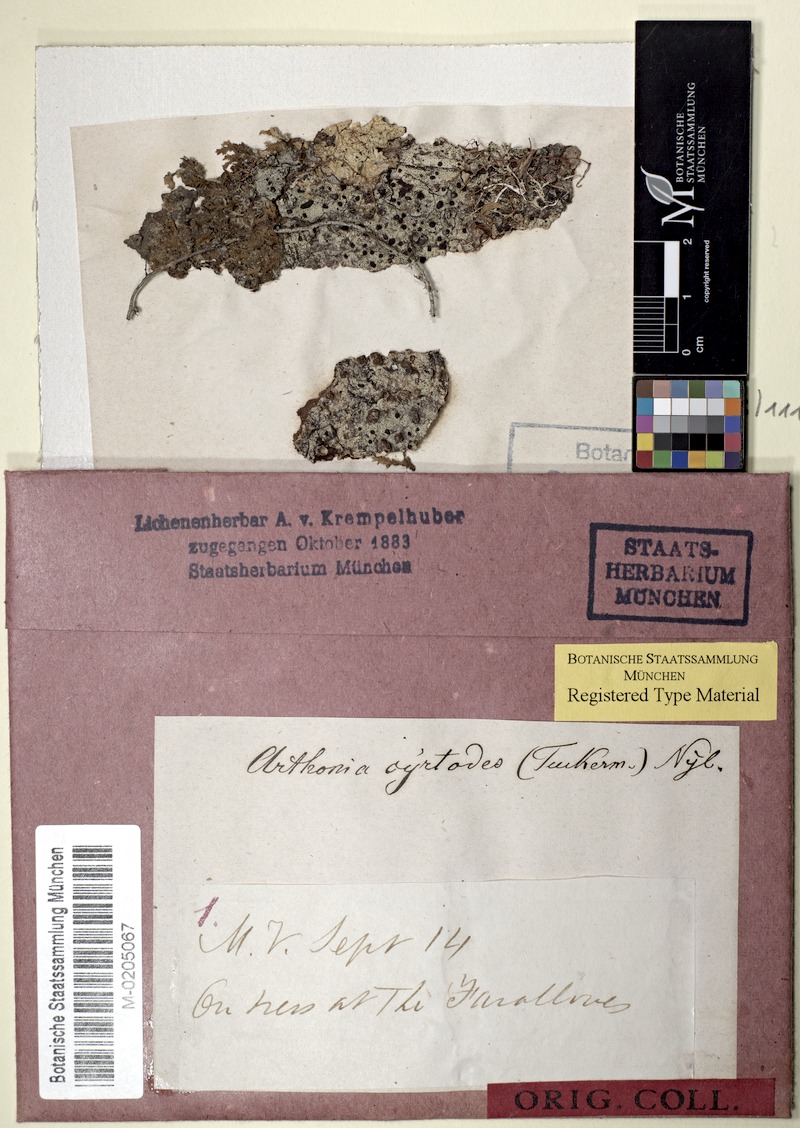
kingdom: Fungi
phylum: Ascomycota
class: Arthoniomycetes
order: Arthoniales
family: Arthoniaceae
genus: Arthothelium
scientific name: Arthothelium cyrtodes
